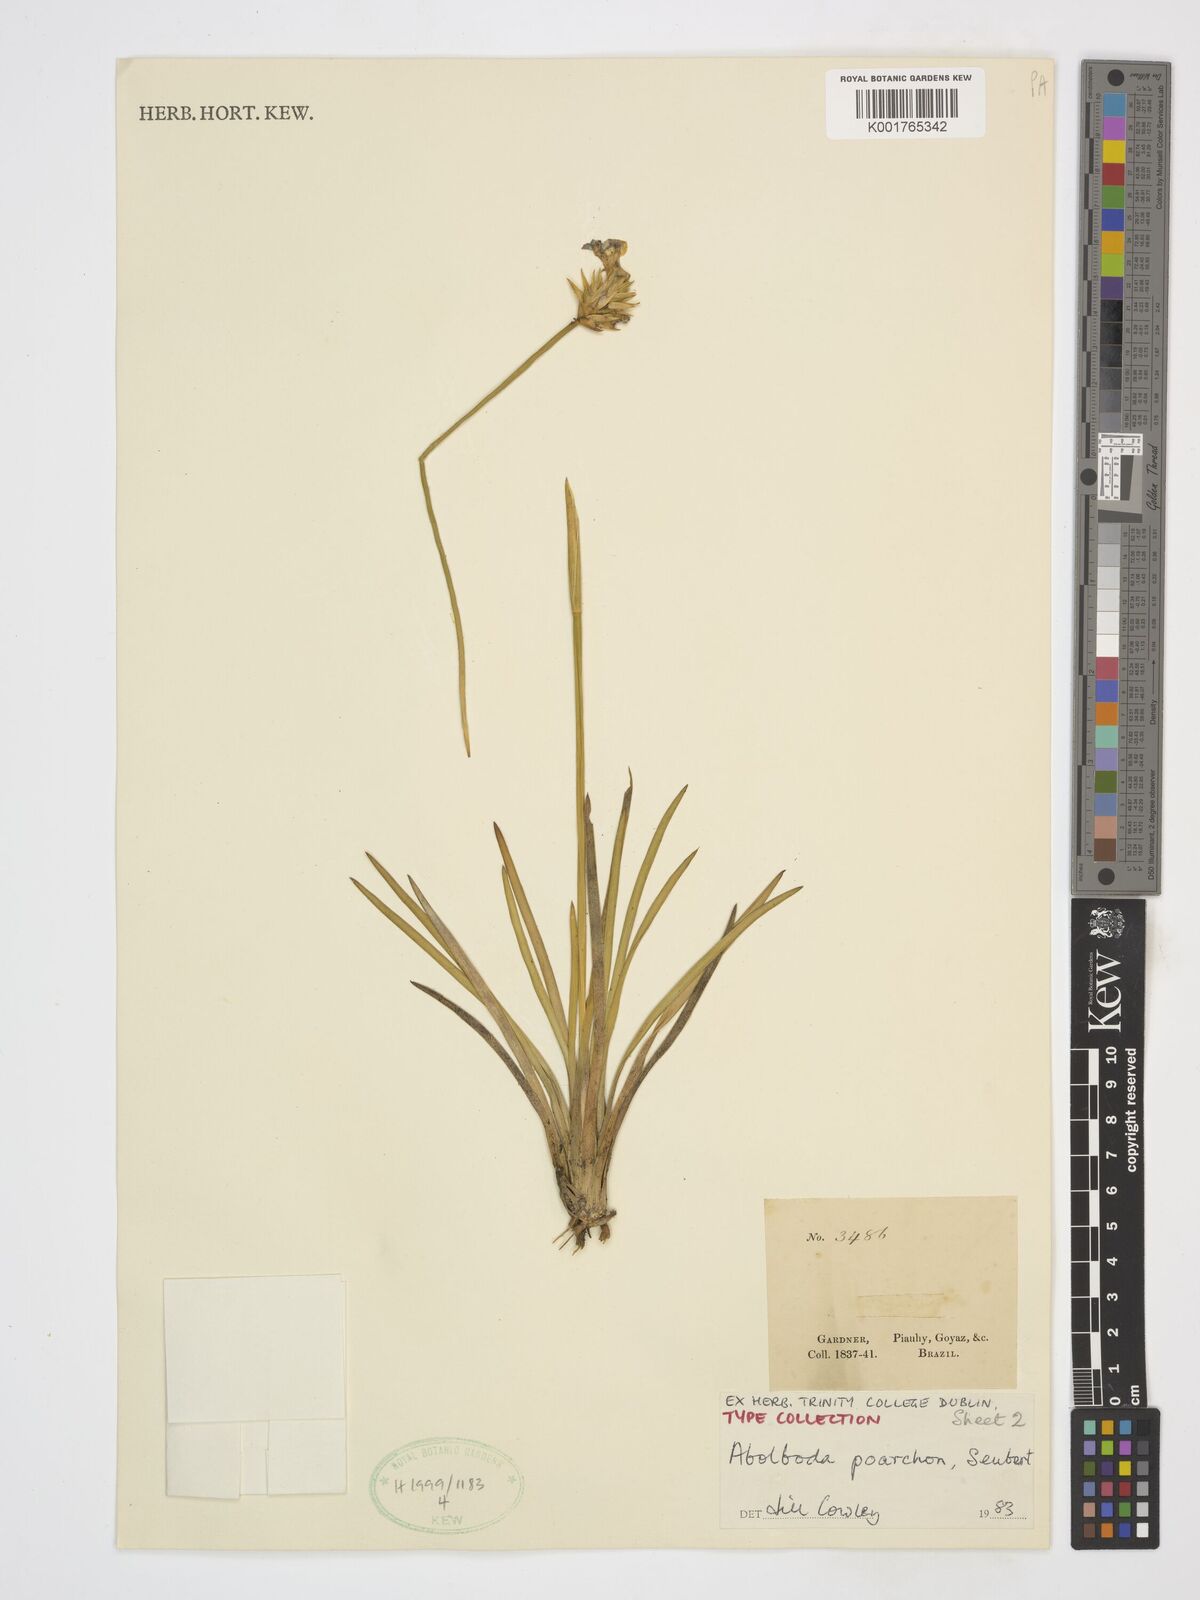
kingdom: Plantae
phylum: Tracheophyta
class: Liliopsida
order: Poales
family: Xyridaceae
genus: Abolboda
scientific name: Abolboda poarchon
